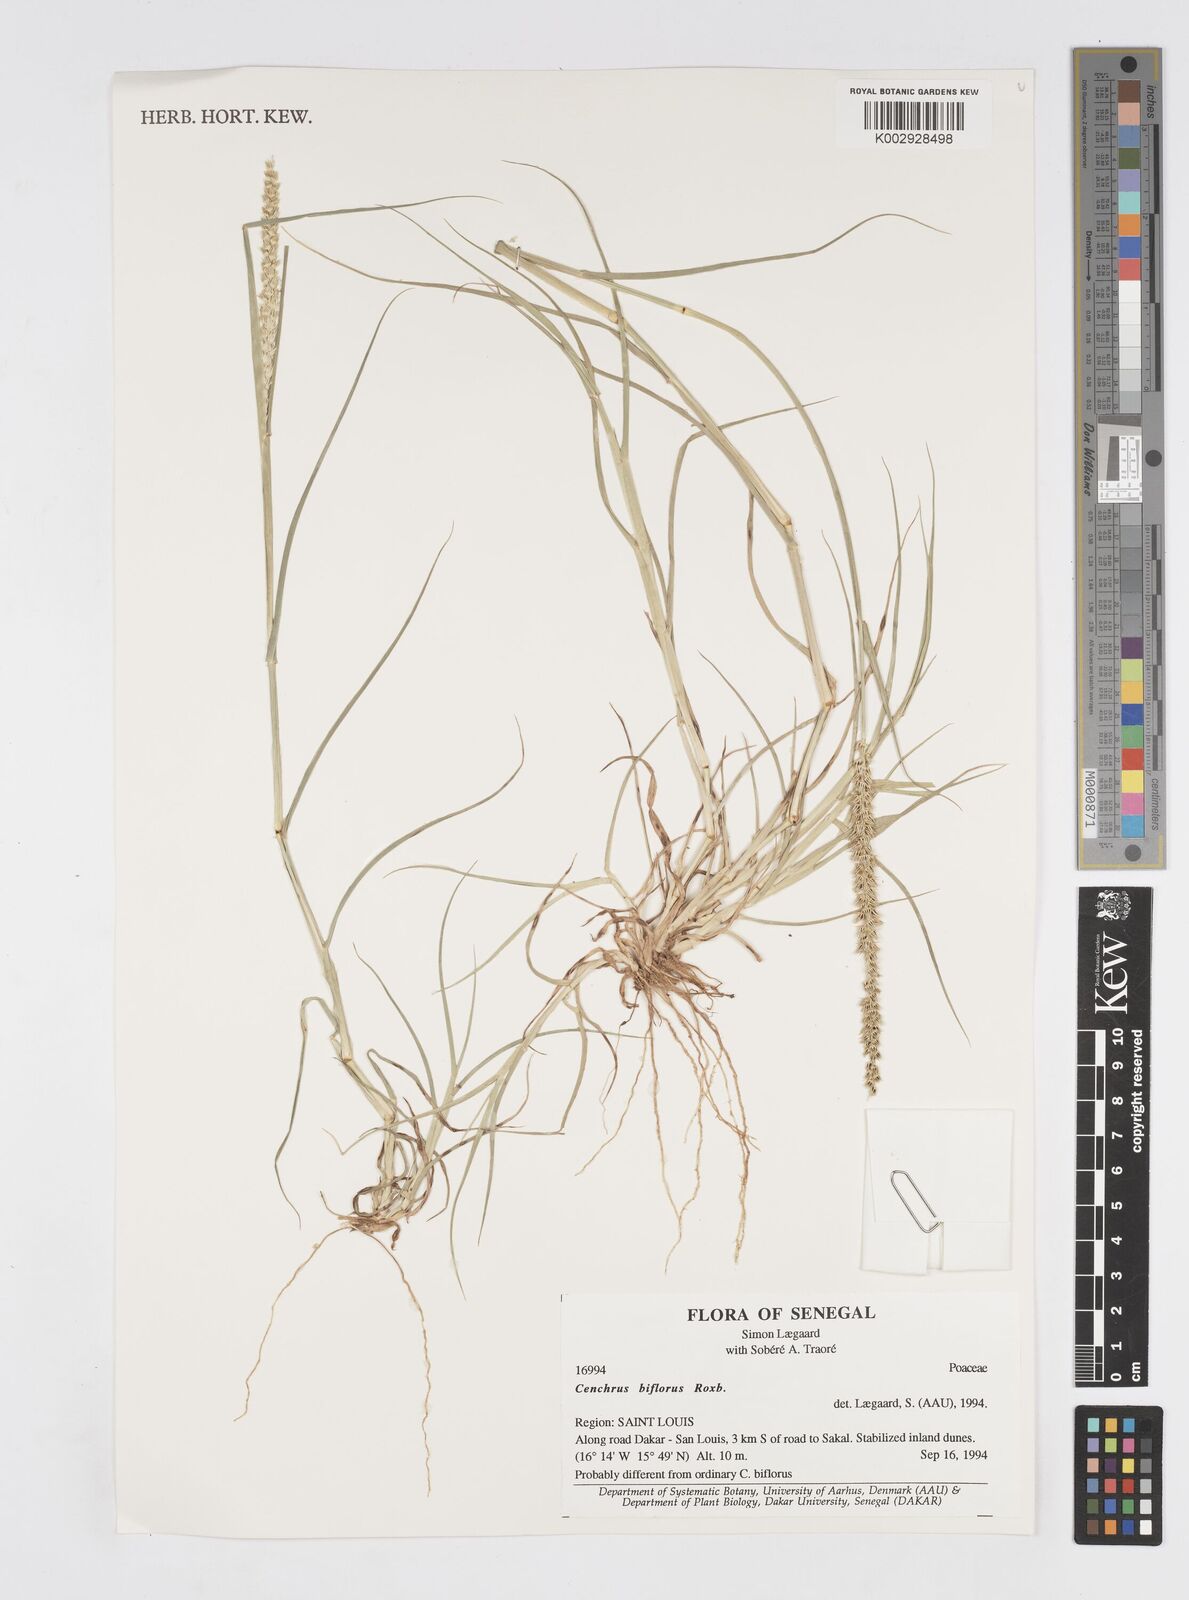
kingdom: Plantae
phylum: Tracheophyta
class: Liliopsida
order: Poales
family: Poaceae
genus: Cenchrus
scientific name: Cenchrus biflorus
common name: Indian sandbur
